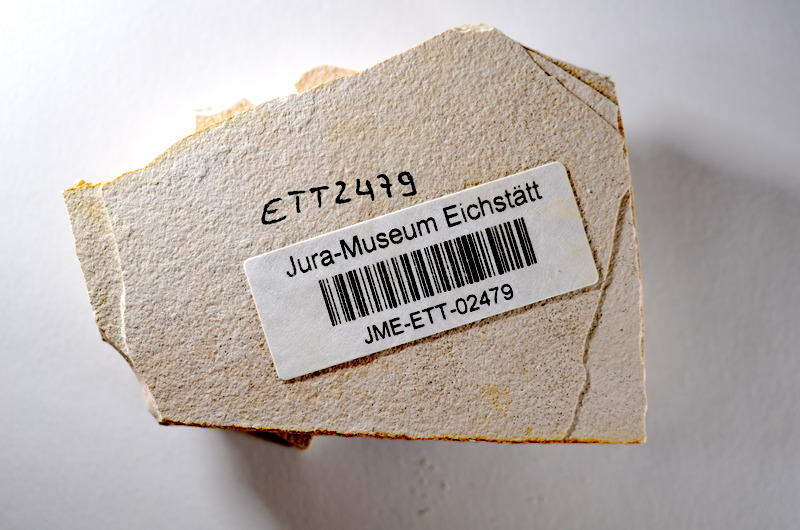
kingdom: Animalia
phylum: Chordata
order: Salmoniformes
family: Orthogonikleithridae
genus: Orthogonikleithrus
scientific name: Orthogonikleithrus hoelli
